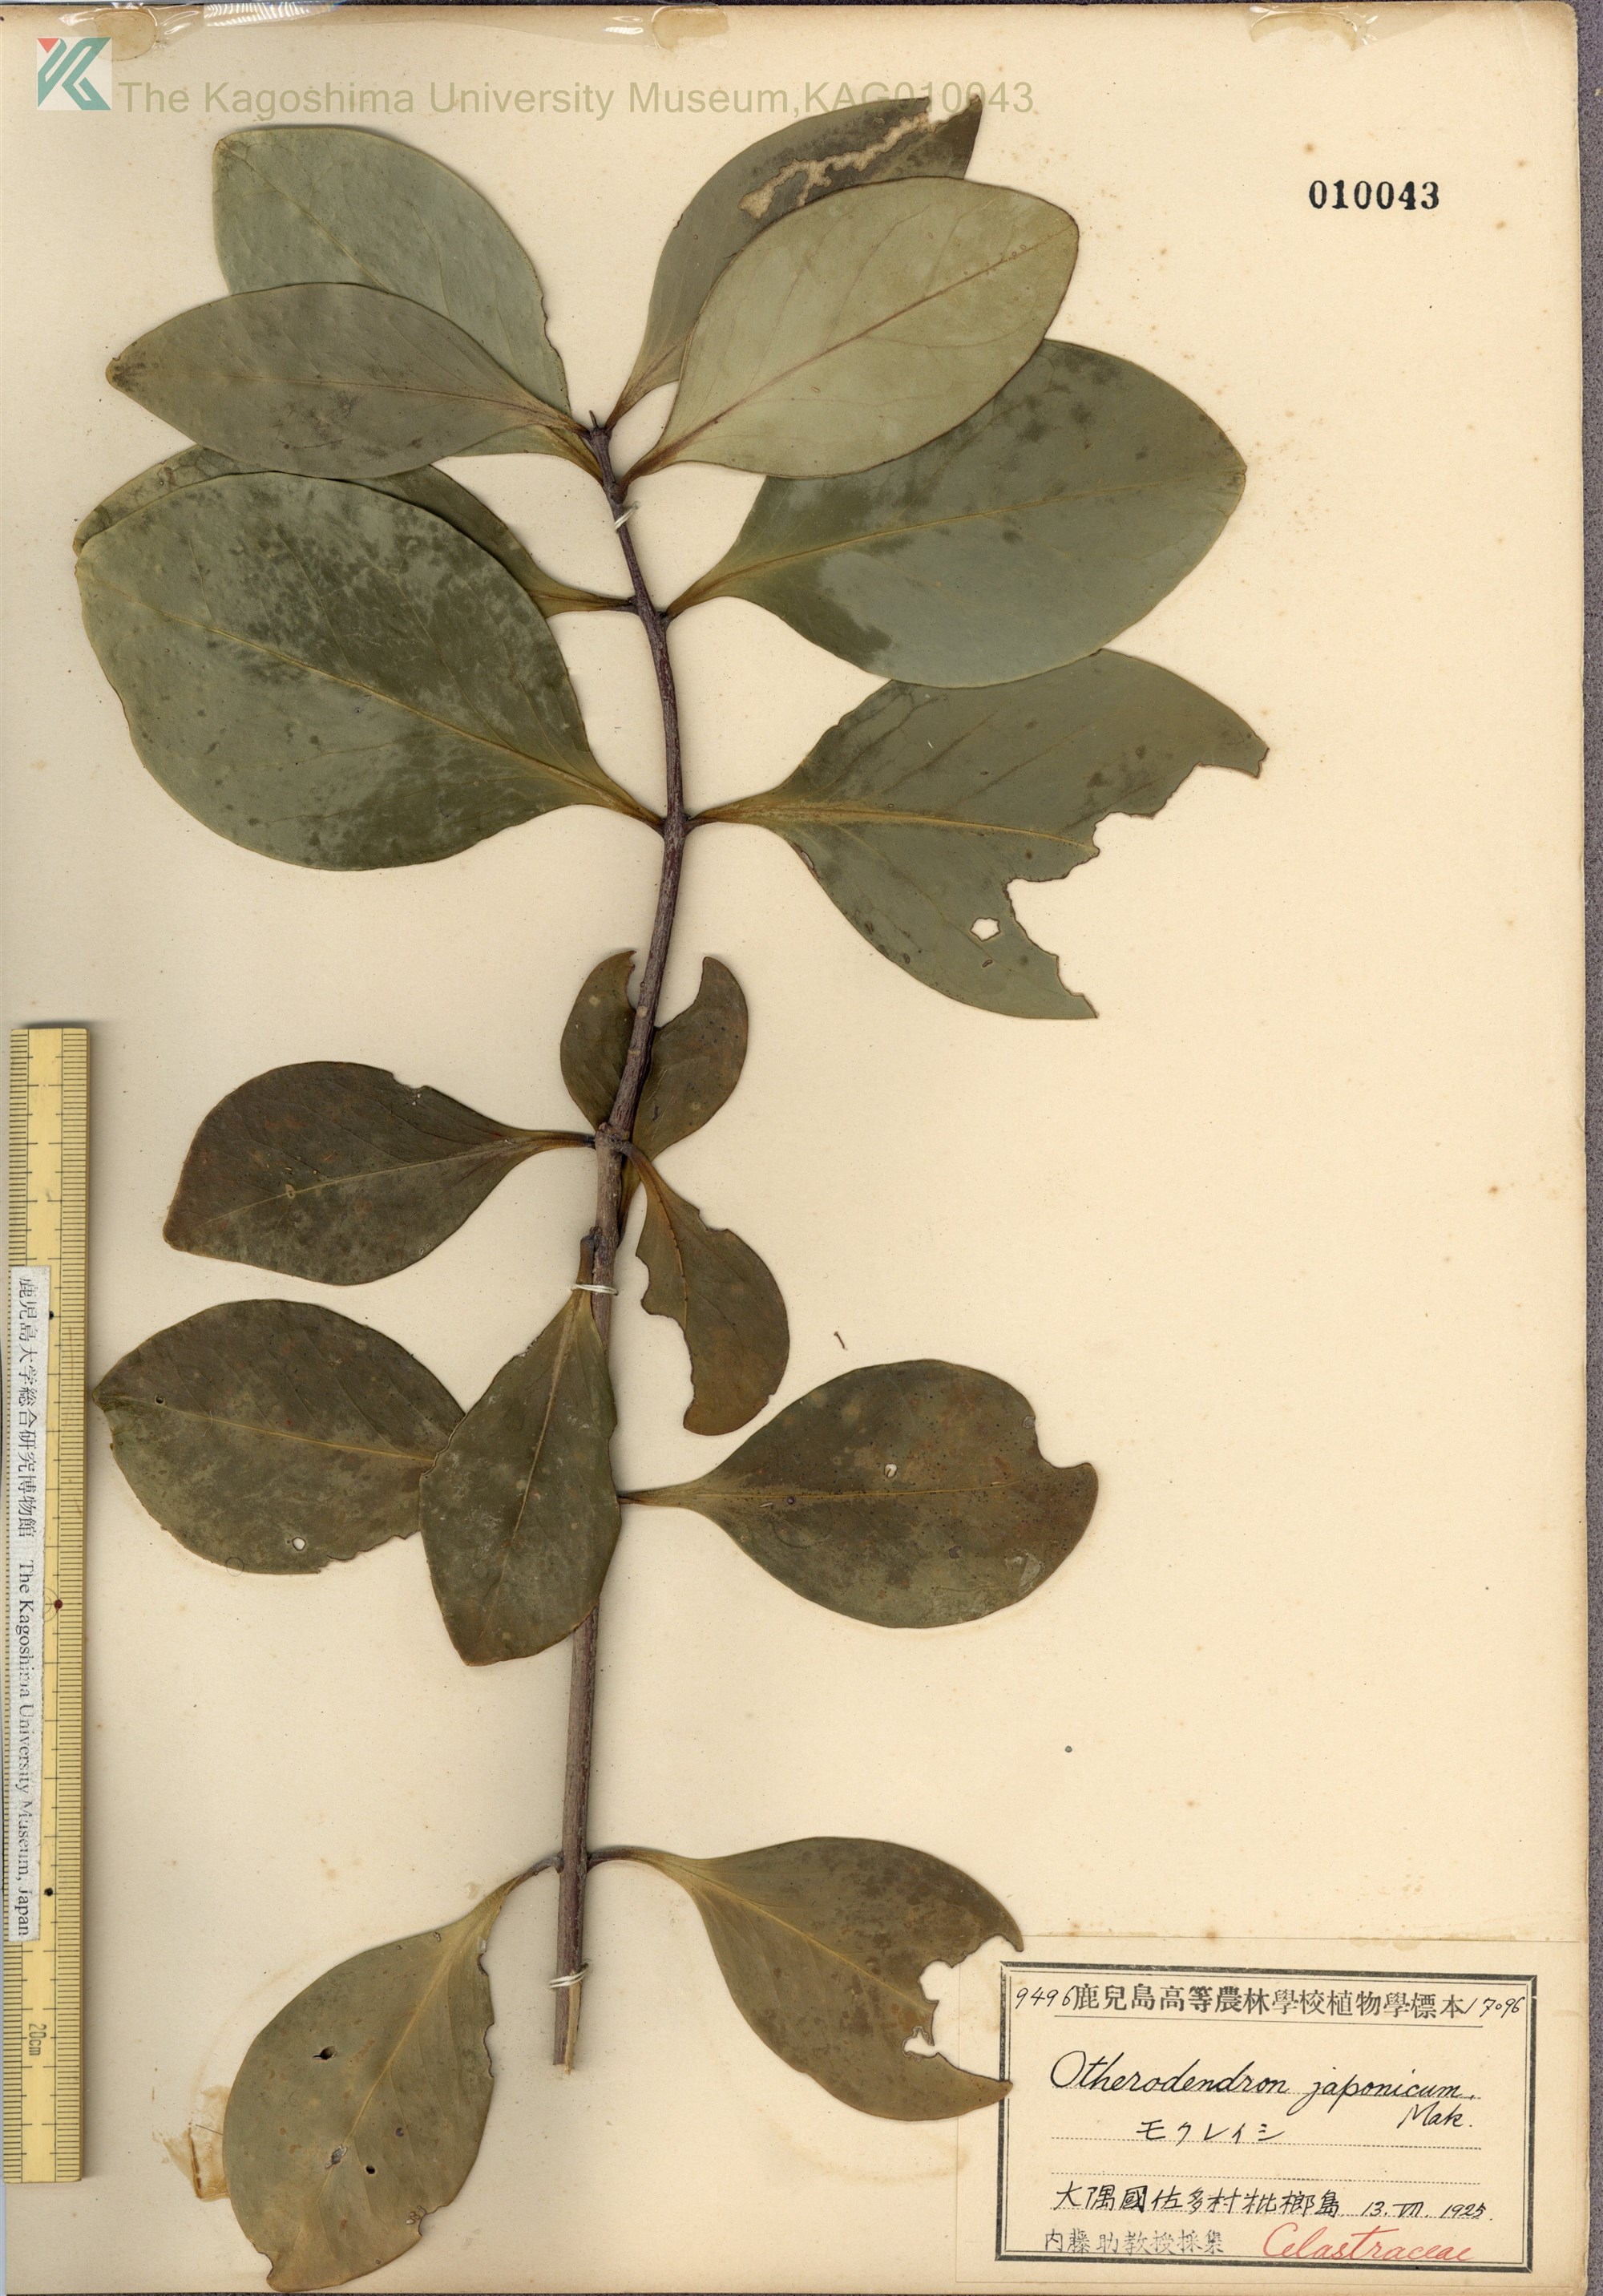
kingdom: Plantae
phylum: Tracheophyta
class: Magnoliopsida
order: Celastrales
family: Celastraceae
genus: Microtropis
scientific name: Microtropis japonica
